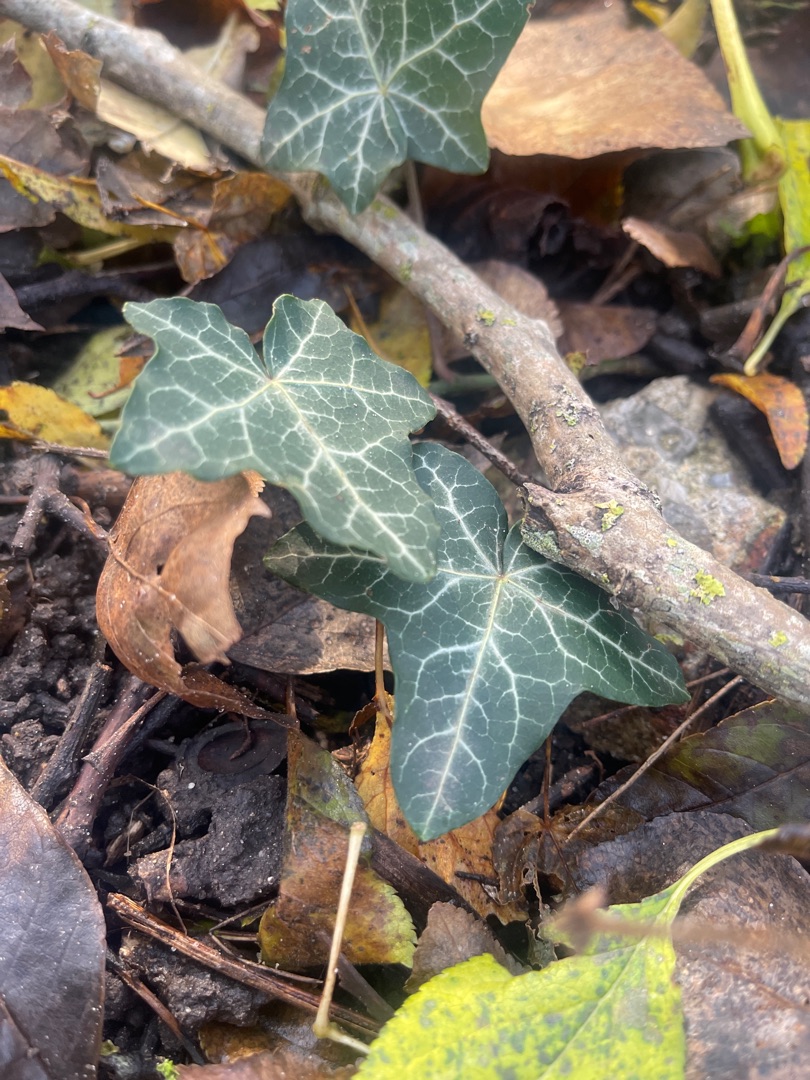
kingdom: Plantae
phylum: Tracheophyta
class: Magnoliopsida
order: Apiales
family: Araliaceae
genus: Hedera
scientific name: Hedera helix
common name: Vedbend
